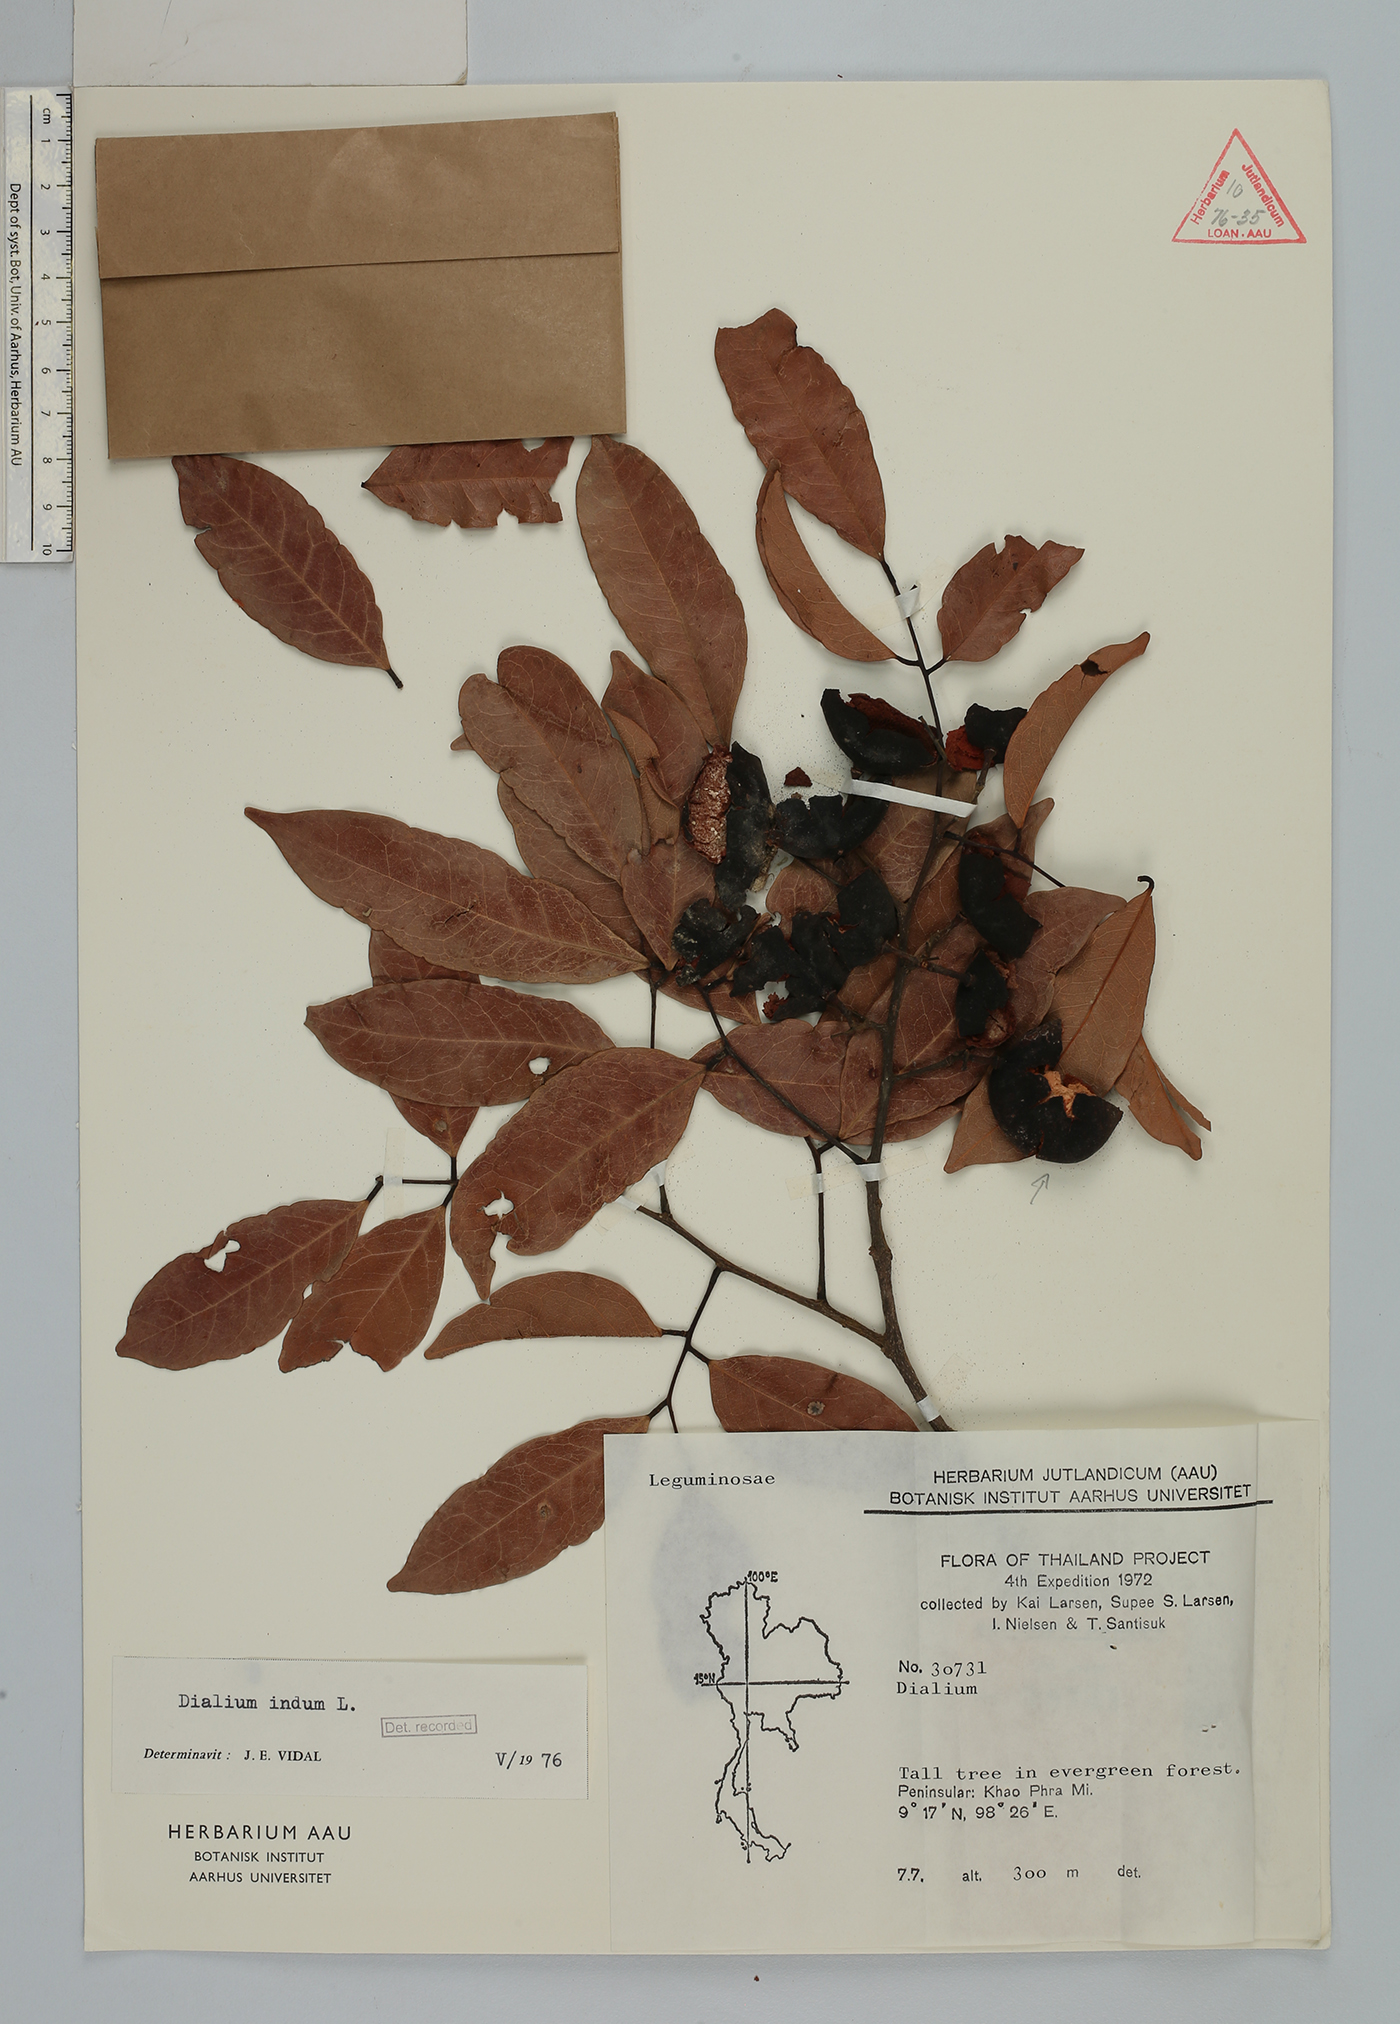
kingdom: Plantae
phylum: Tracheophyta
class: Magnoliopsida
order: Fabales
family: Fabaceae
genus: Dialium
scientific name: Dialium indum
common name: Tamarind-plum
